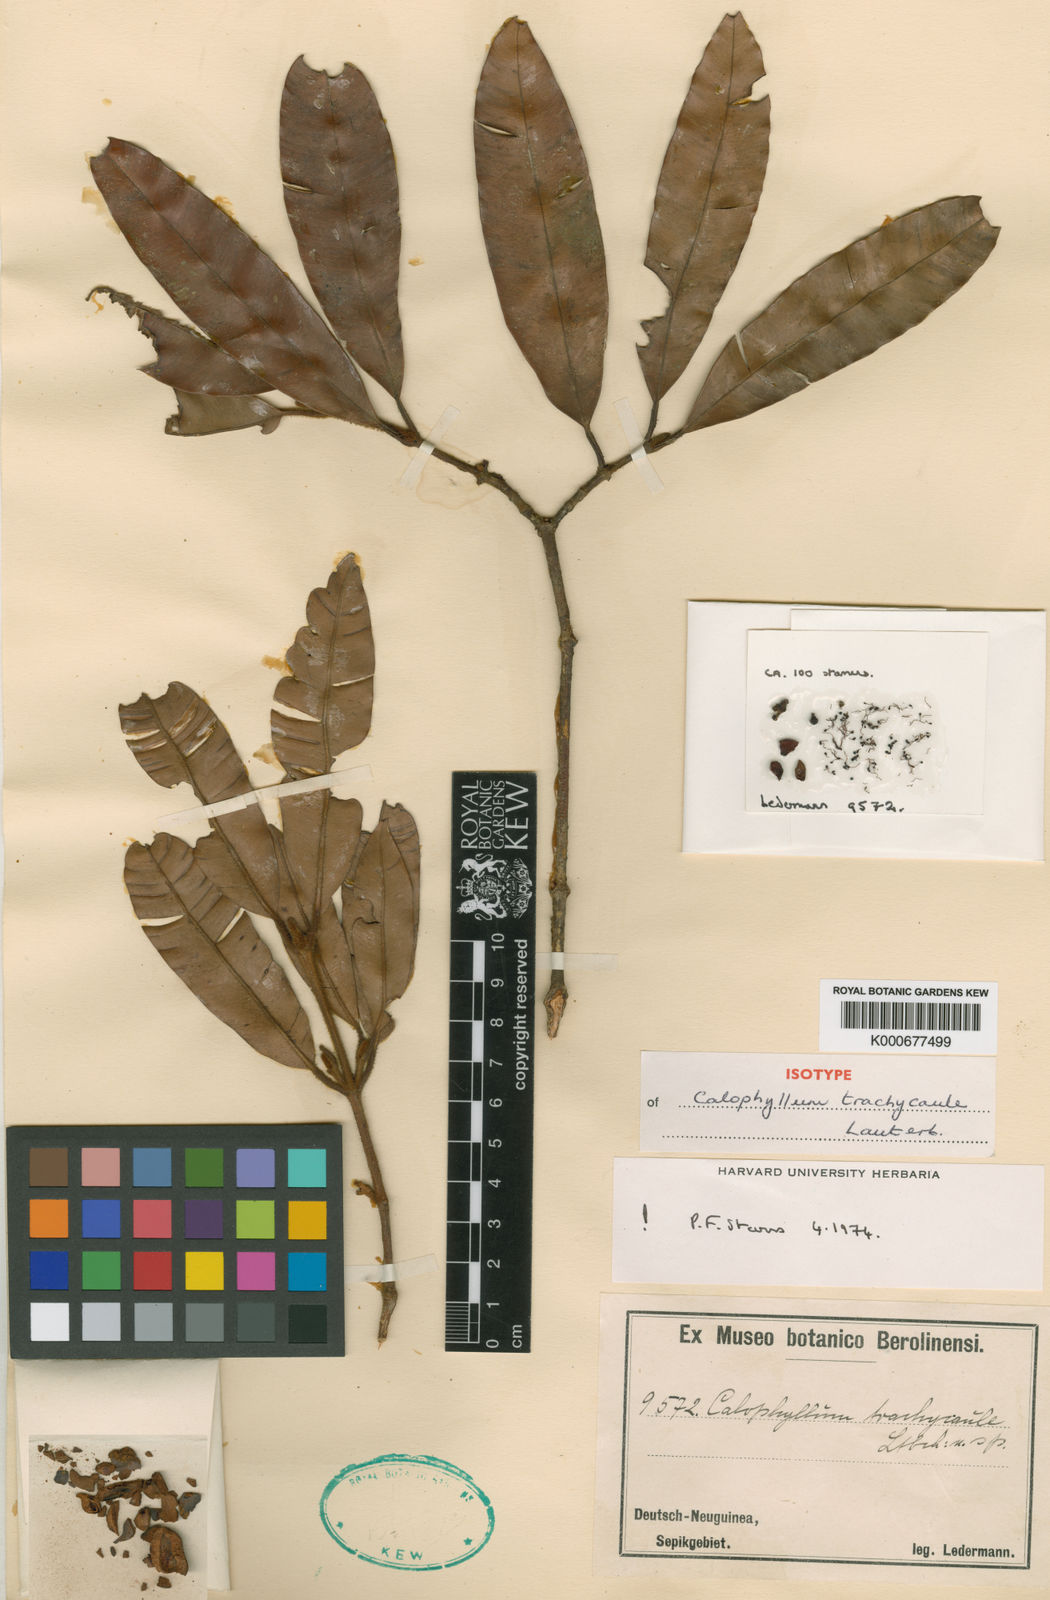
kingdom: Plantae
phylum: Tracheophyta
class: Magnoliopsida
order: Malpighiales
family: Calophyllaceae
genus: Calophyllum
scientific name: Calophyllum trachycaule
